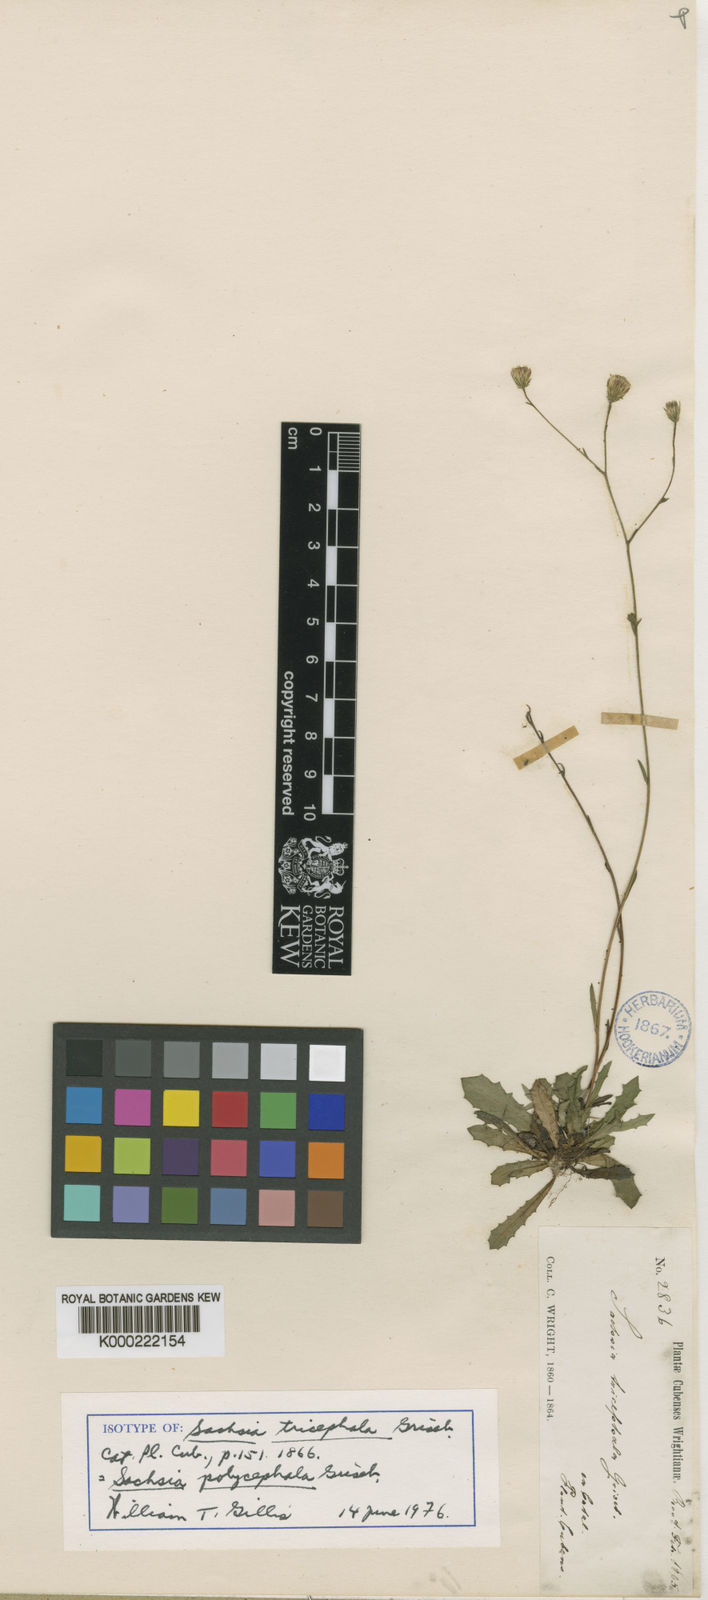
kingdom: Plantae
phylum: Tracheophyta
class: Magnoliopsida
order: Asterales
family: Asteraceae
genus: Sachsia
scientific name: Sachsia tricephala
